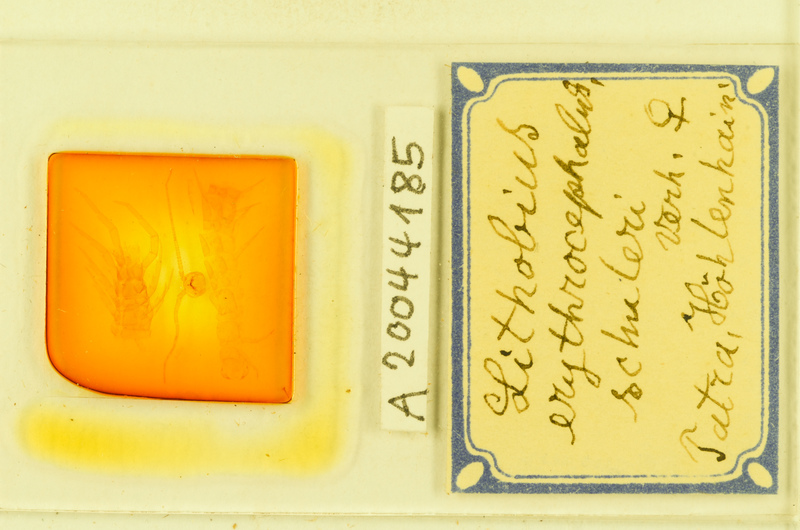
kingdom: Animalia
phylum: Arthropoda
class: Chilopoda
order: Lithobiomorpha
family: Lithobiidae
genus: Lithobius
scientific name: Lithobius erythrocephalus
